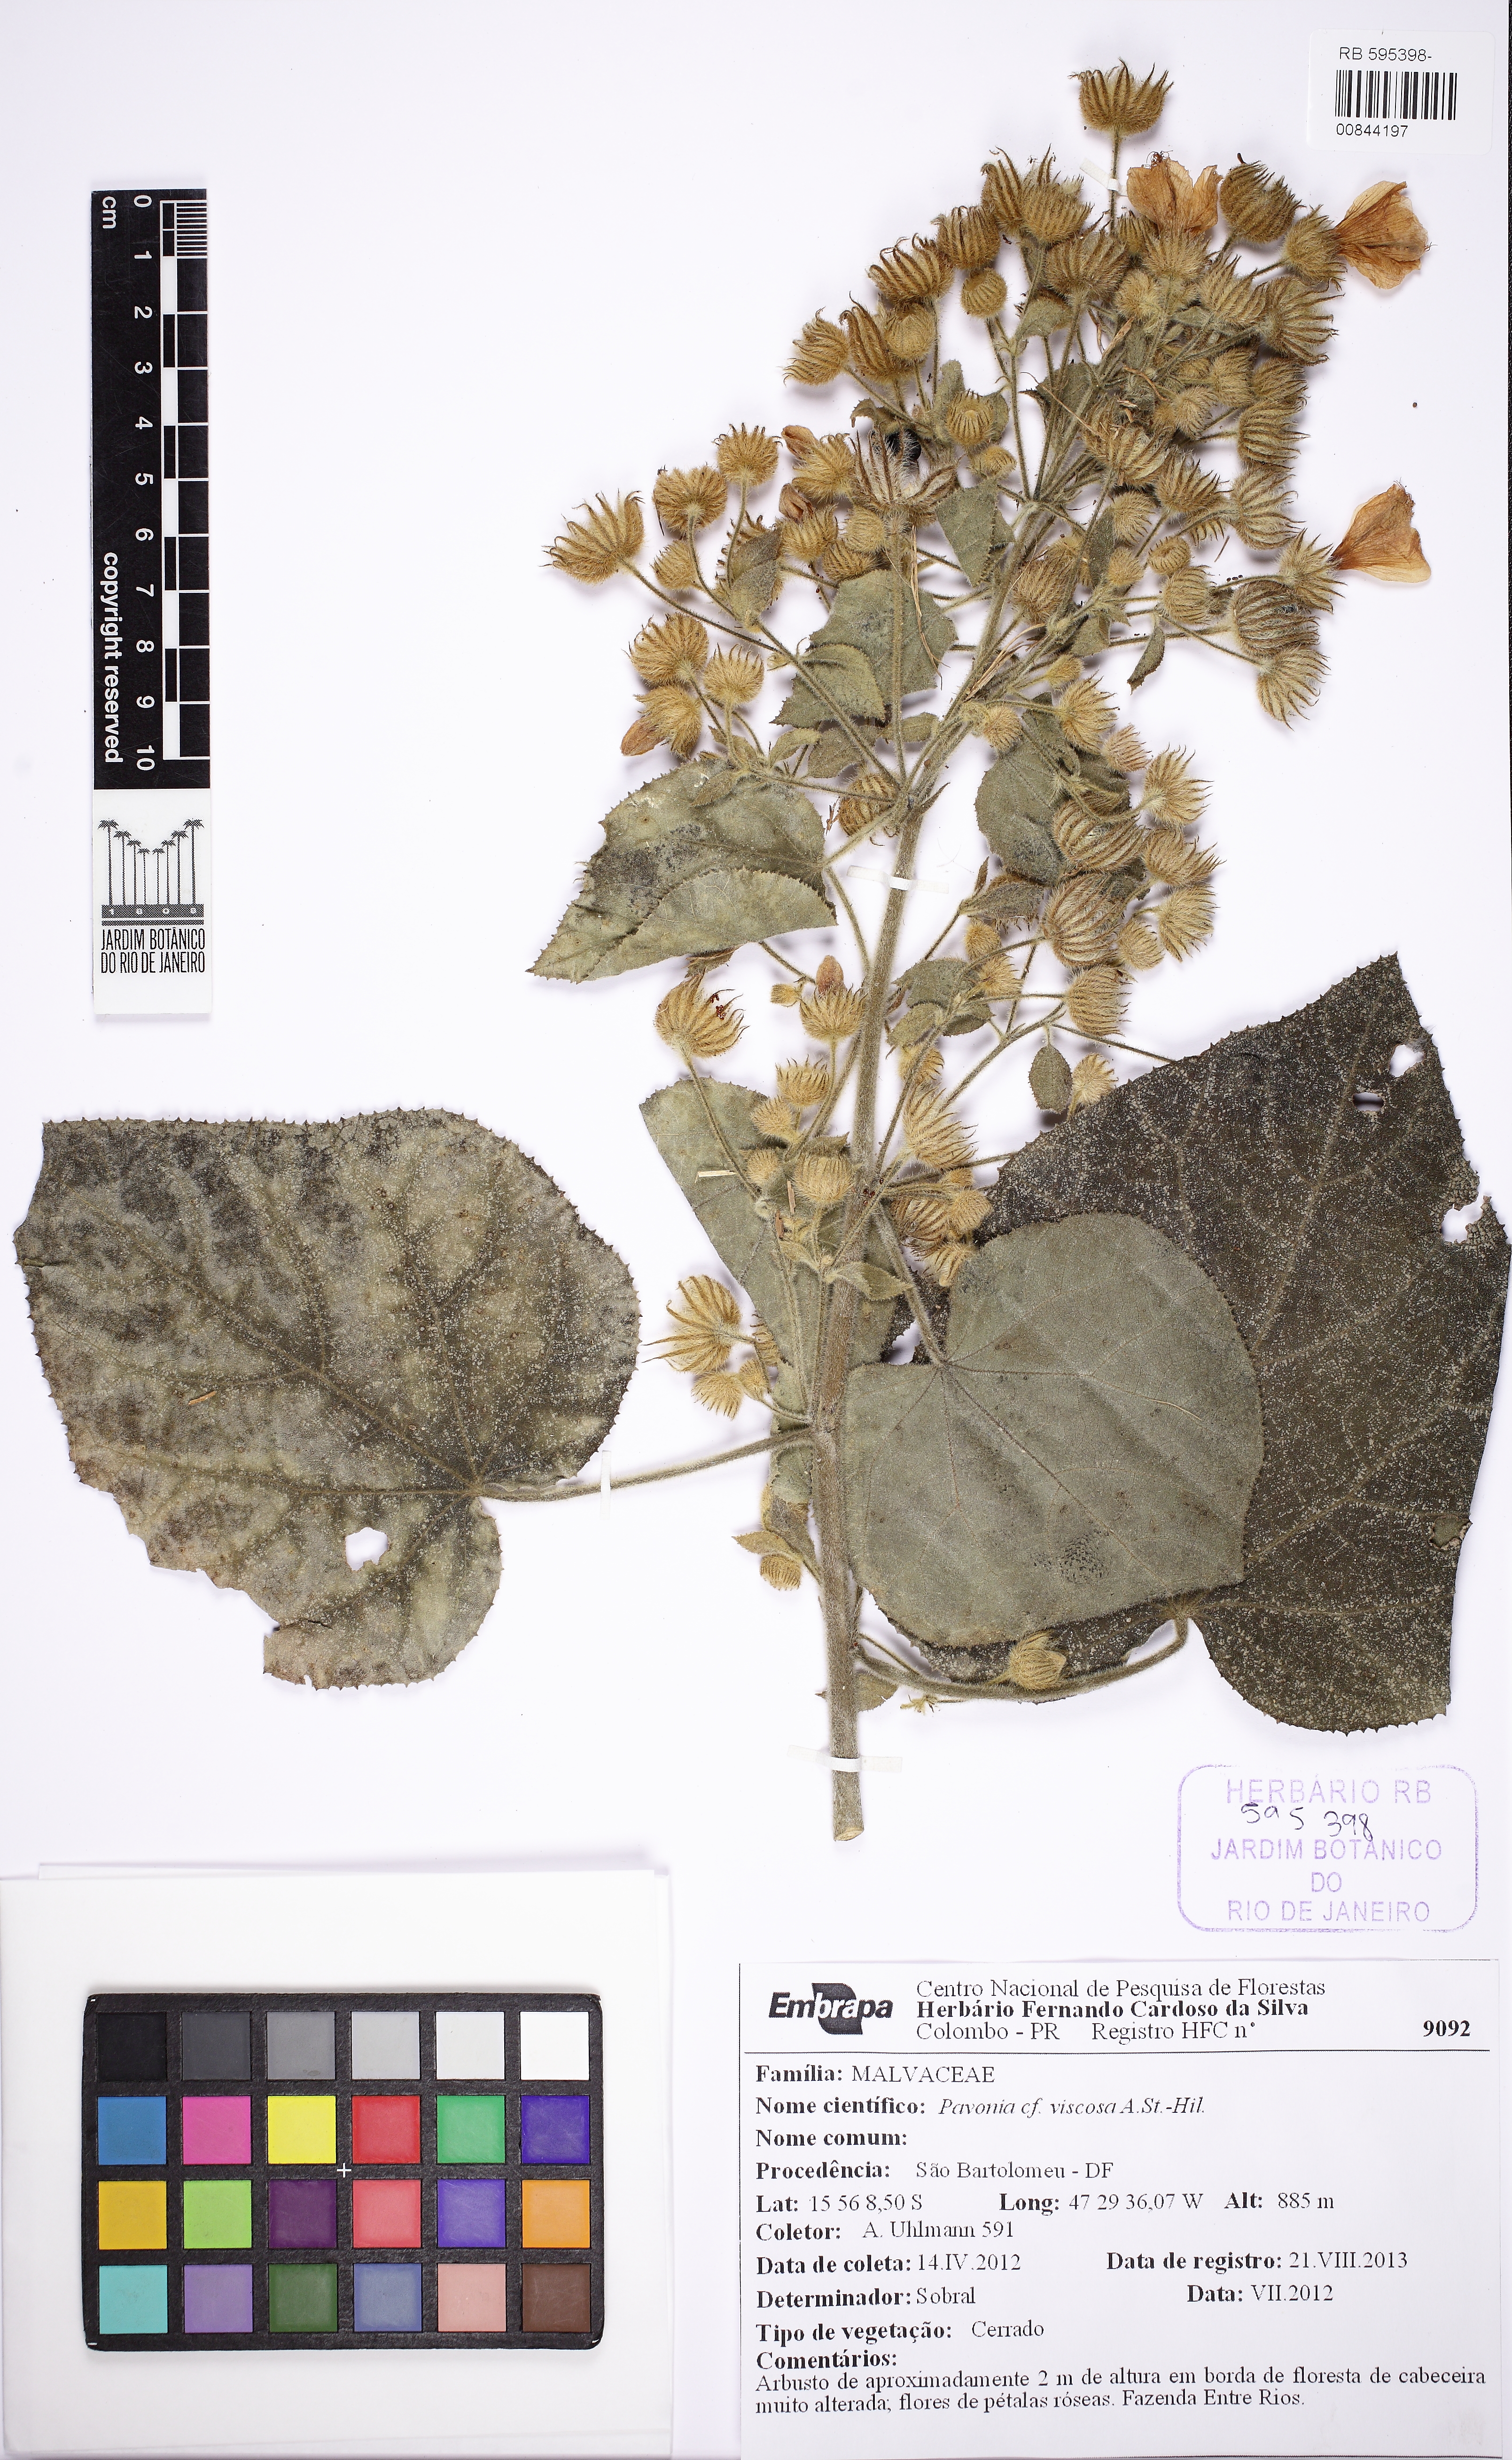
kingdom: Plantae
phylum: Tracheophyta
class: Magnoliopsida
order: Malvales
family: Malvaceae
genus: Pavonia
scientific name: Pavonia malacophylla
